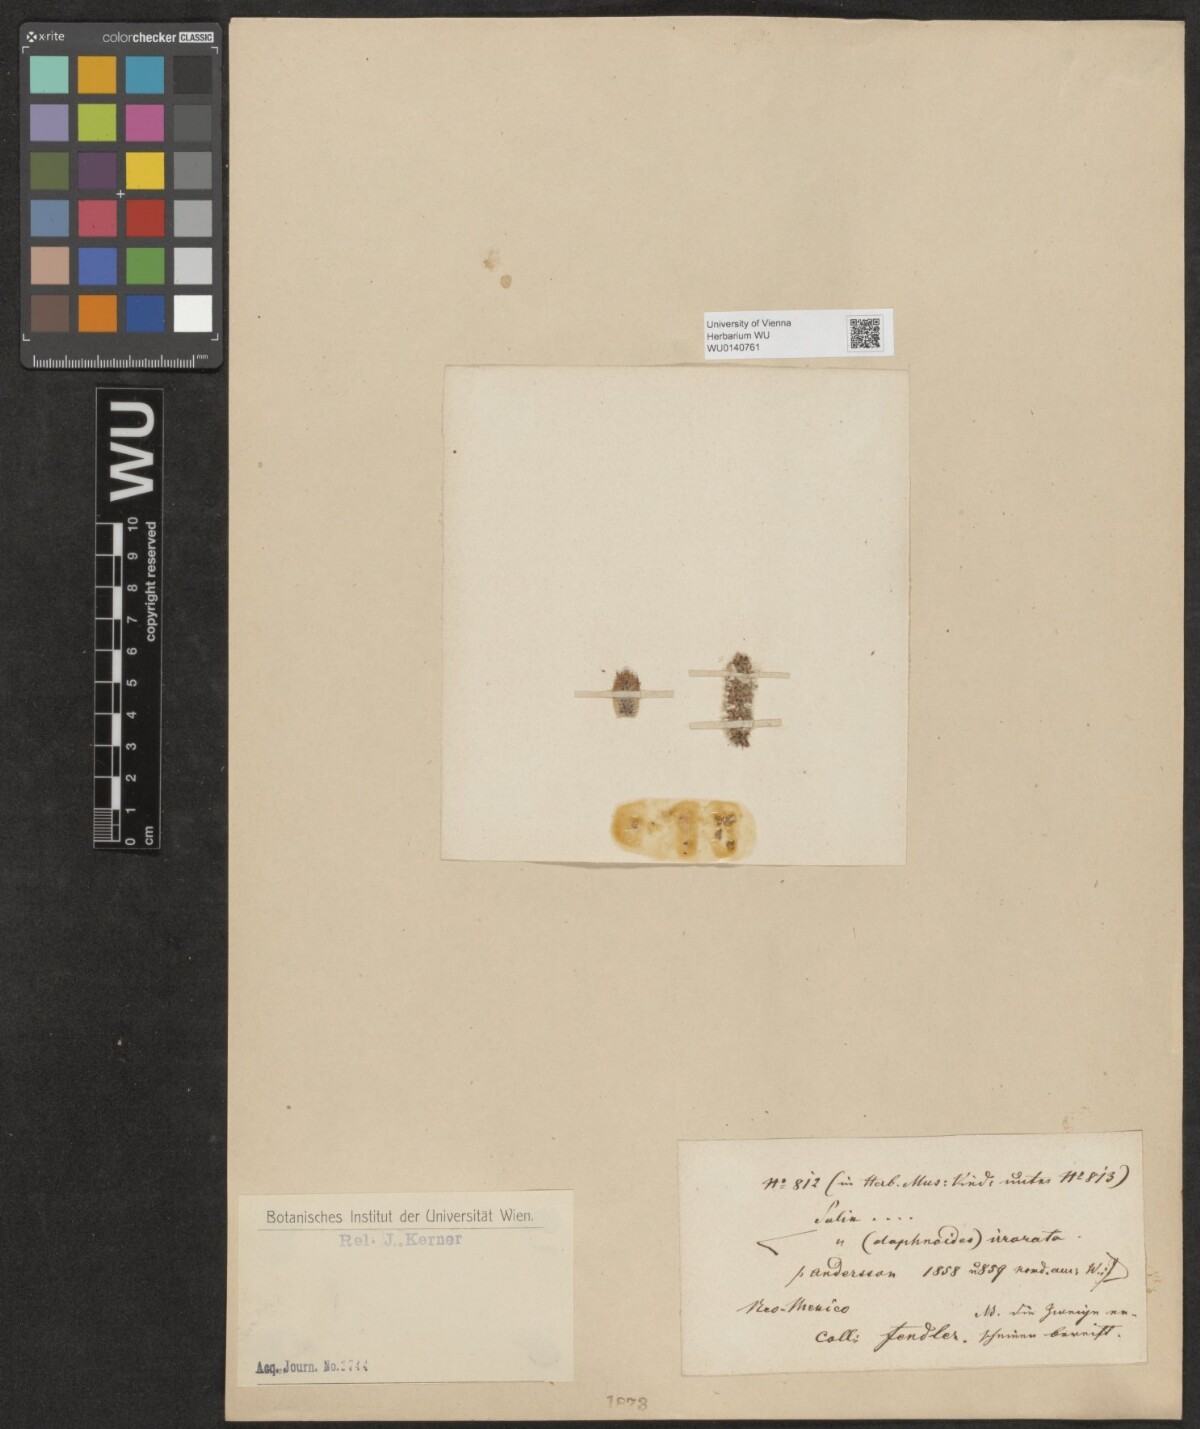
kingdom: Plantae
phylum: Tracheophyta
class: Magnoliopsida
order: Malpighiales
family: Salicaceae
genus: Salix
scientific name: Salix
